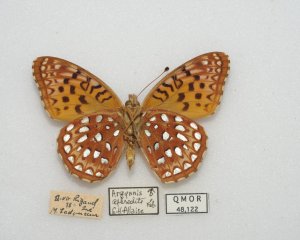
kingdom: Animalia
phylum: Arthropoda
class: Insecta
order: Lepidoptera
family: Nymphalidae
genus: Speyeria
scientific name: Speyeria aphrodite
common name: Aphrodite Fritillary
